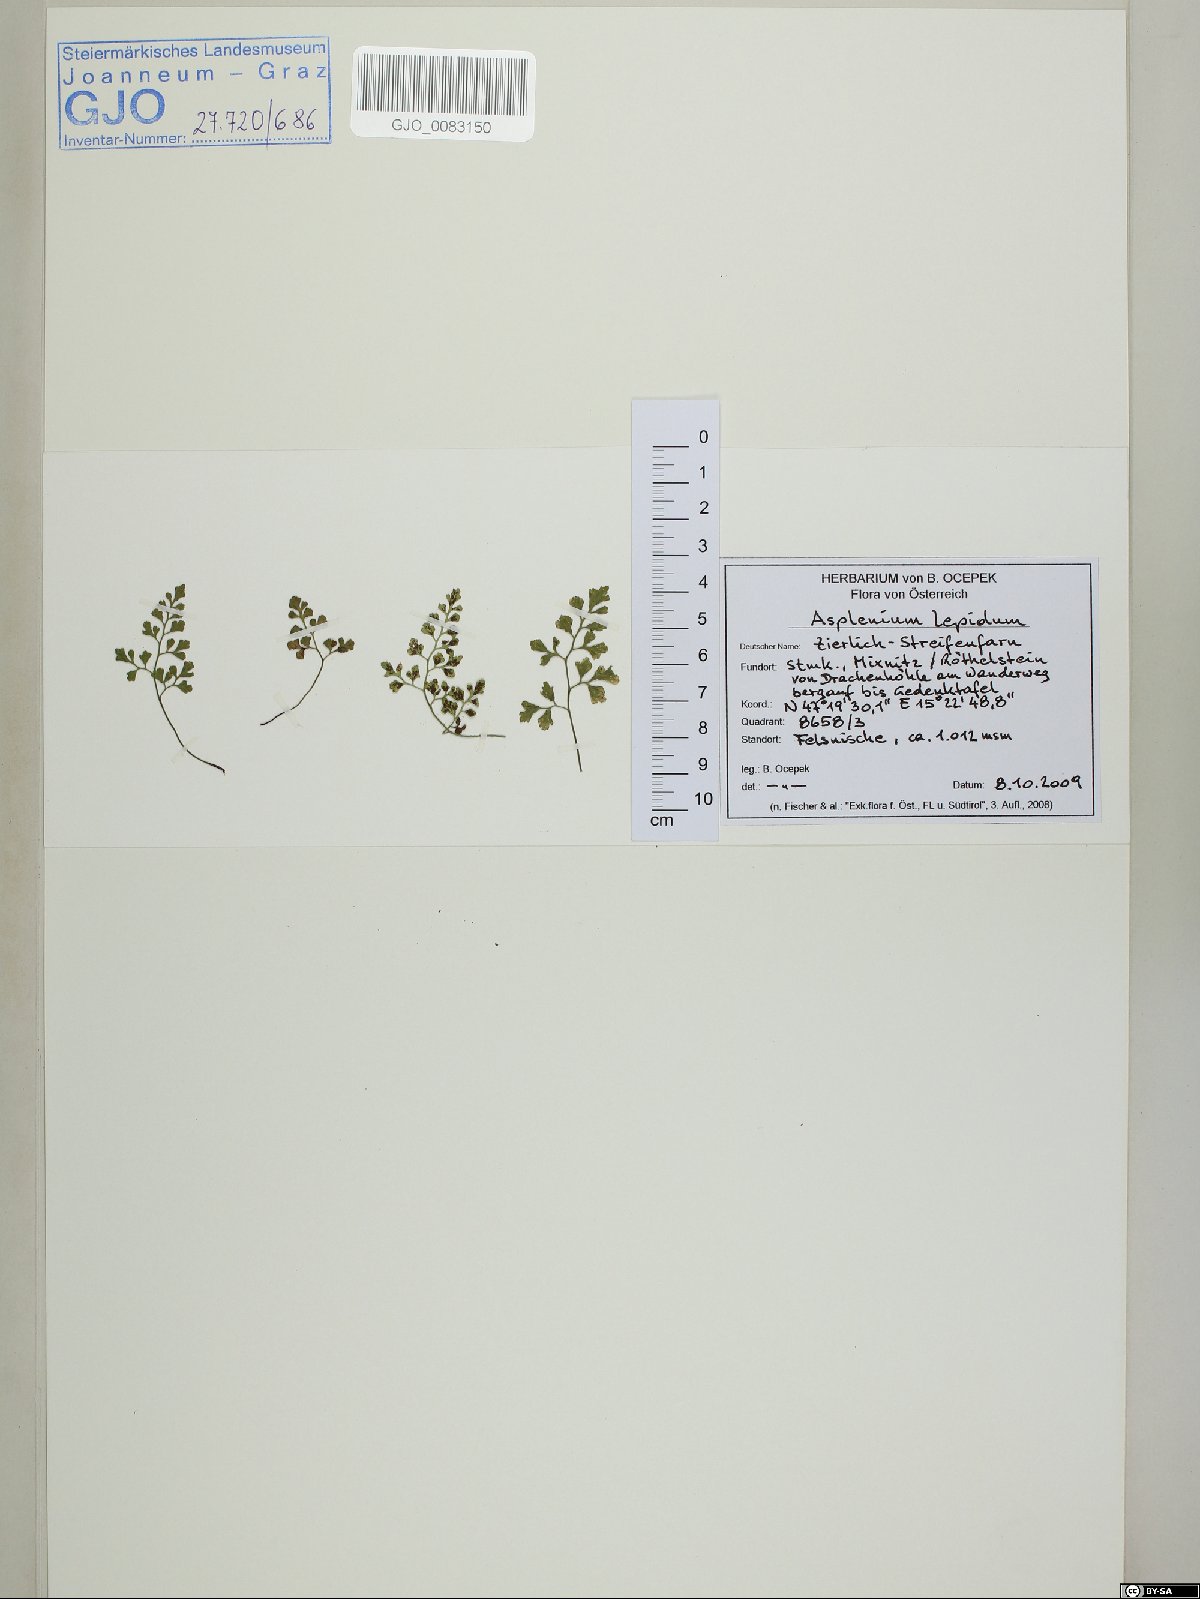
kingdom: Plantae
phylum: Tracheophyta
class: Polypodiopsida
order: Polypodiales
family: Aspleniaceae
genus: Asplenium
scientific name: Asplenium lepidum
